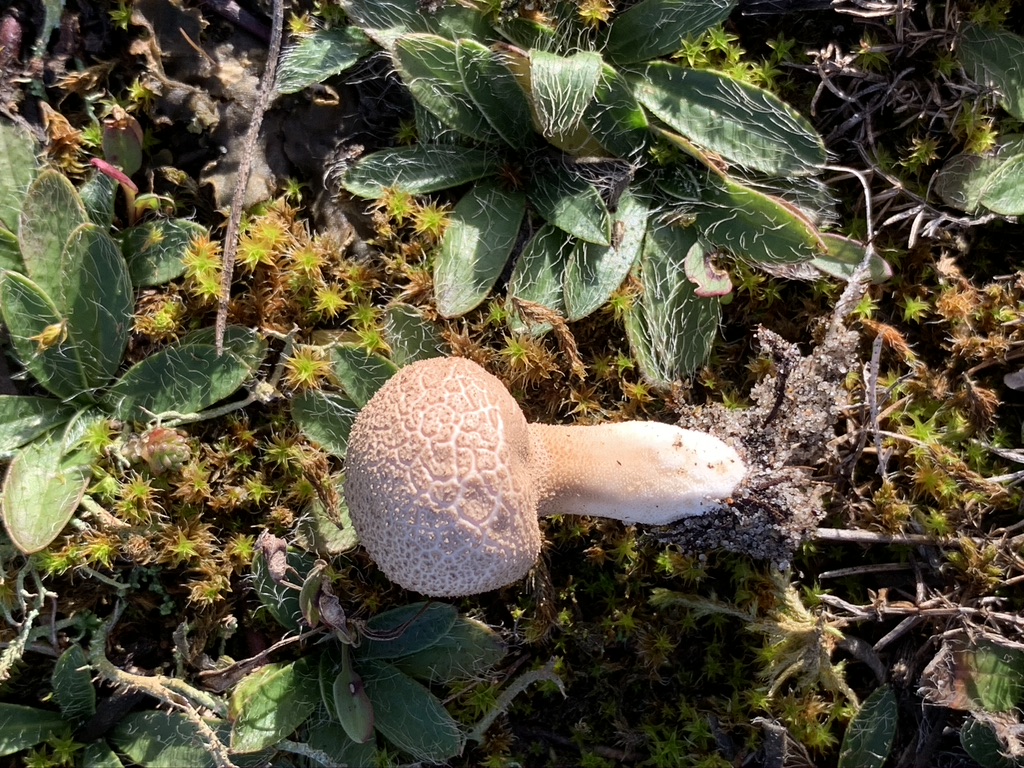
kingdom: Fungi
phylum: Basidiomycota
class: Agaricomycetes
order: Agaricales
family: Lycoperdaceae
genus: Lycoperdon
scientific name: Lycoperdon lividum
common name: mark-støvbold
